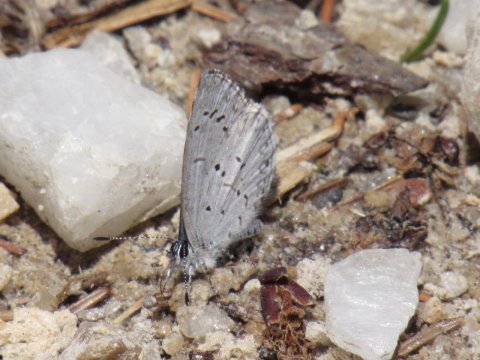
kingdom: Animalia
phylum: Arthropoda
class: Insecta
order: Lepidoptera
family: Lycaenidae
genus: Celastrina
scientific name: Celastrina lucia
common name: Northern Spring Azure
